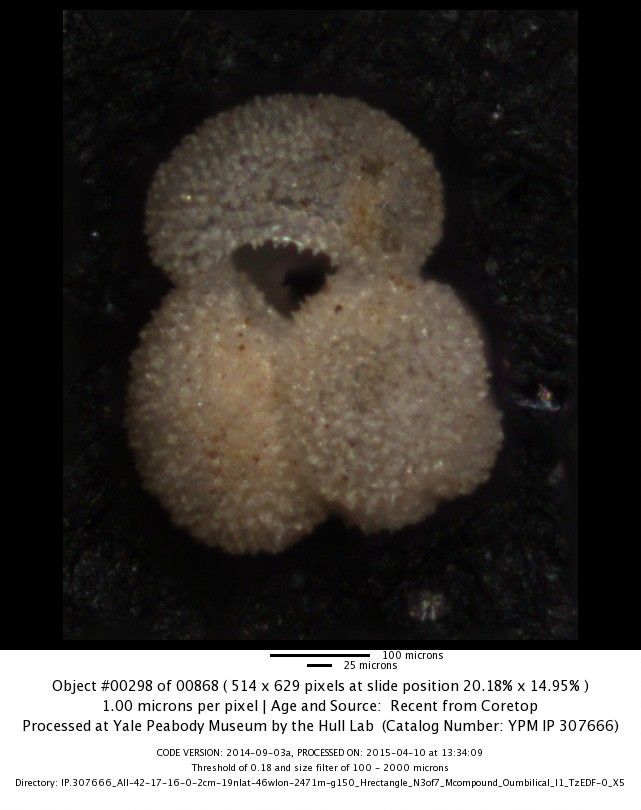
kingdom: Chromista
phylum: Foraminifera
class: Globothalamea
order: Rotaliida
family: Globigerinidae
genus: Globigerinoides
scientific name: Globigerinoides ruber
